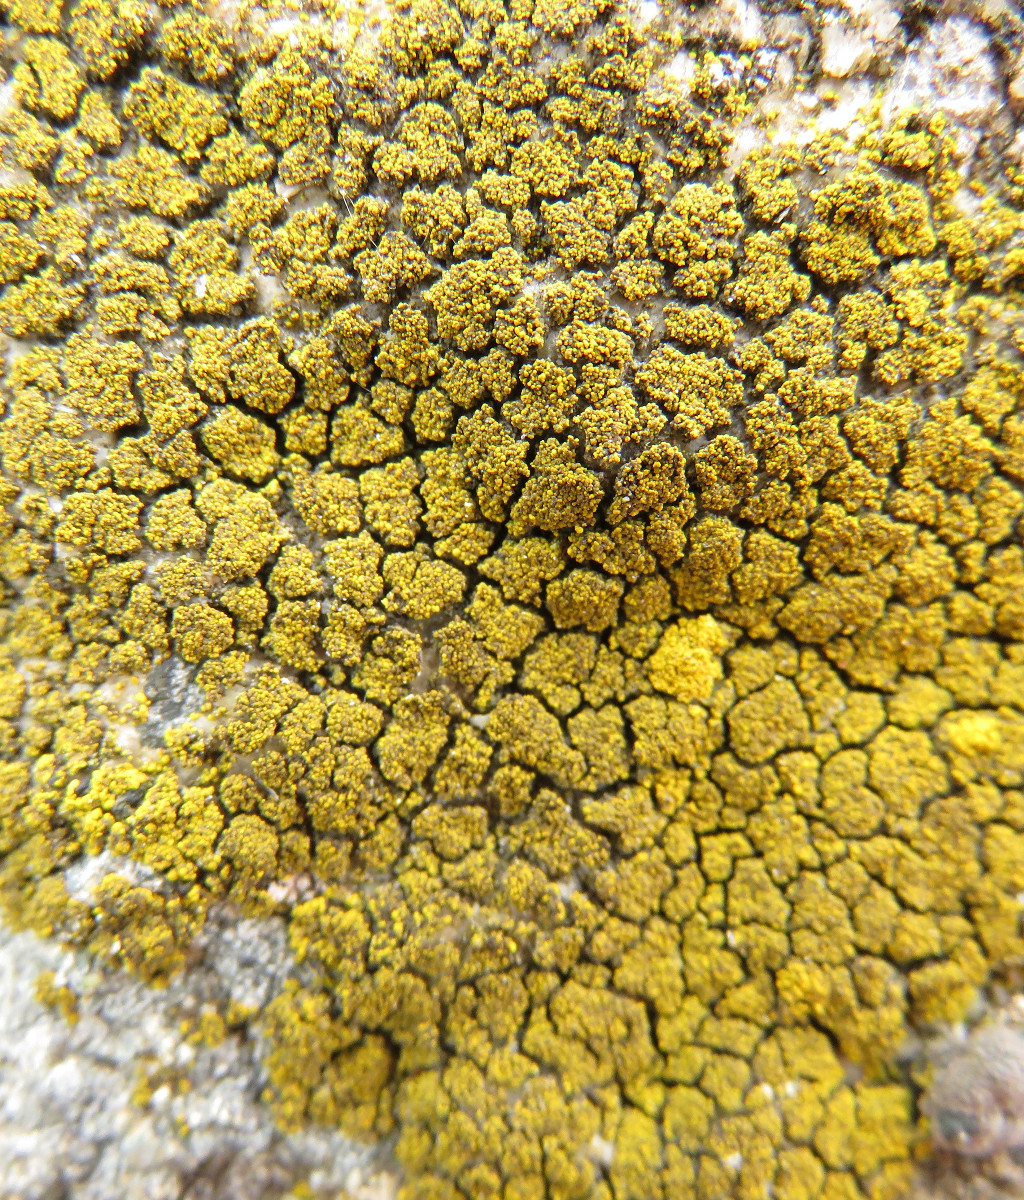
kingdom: Fungi
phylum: Ascomycota
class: Candelariomycetes
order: Candelariales
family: Candelariaceae
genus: Candelariella
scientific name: Candelariella vitellina
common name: almindelig æggeblommelav
